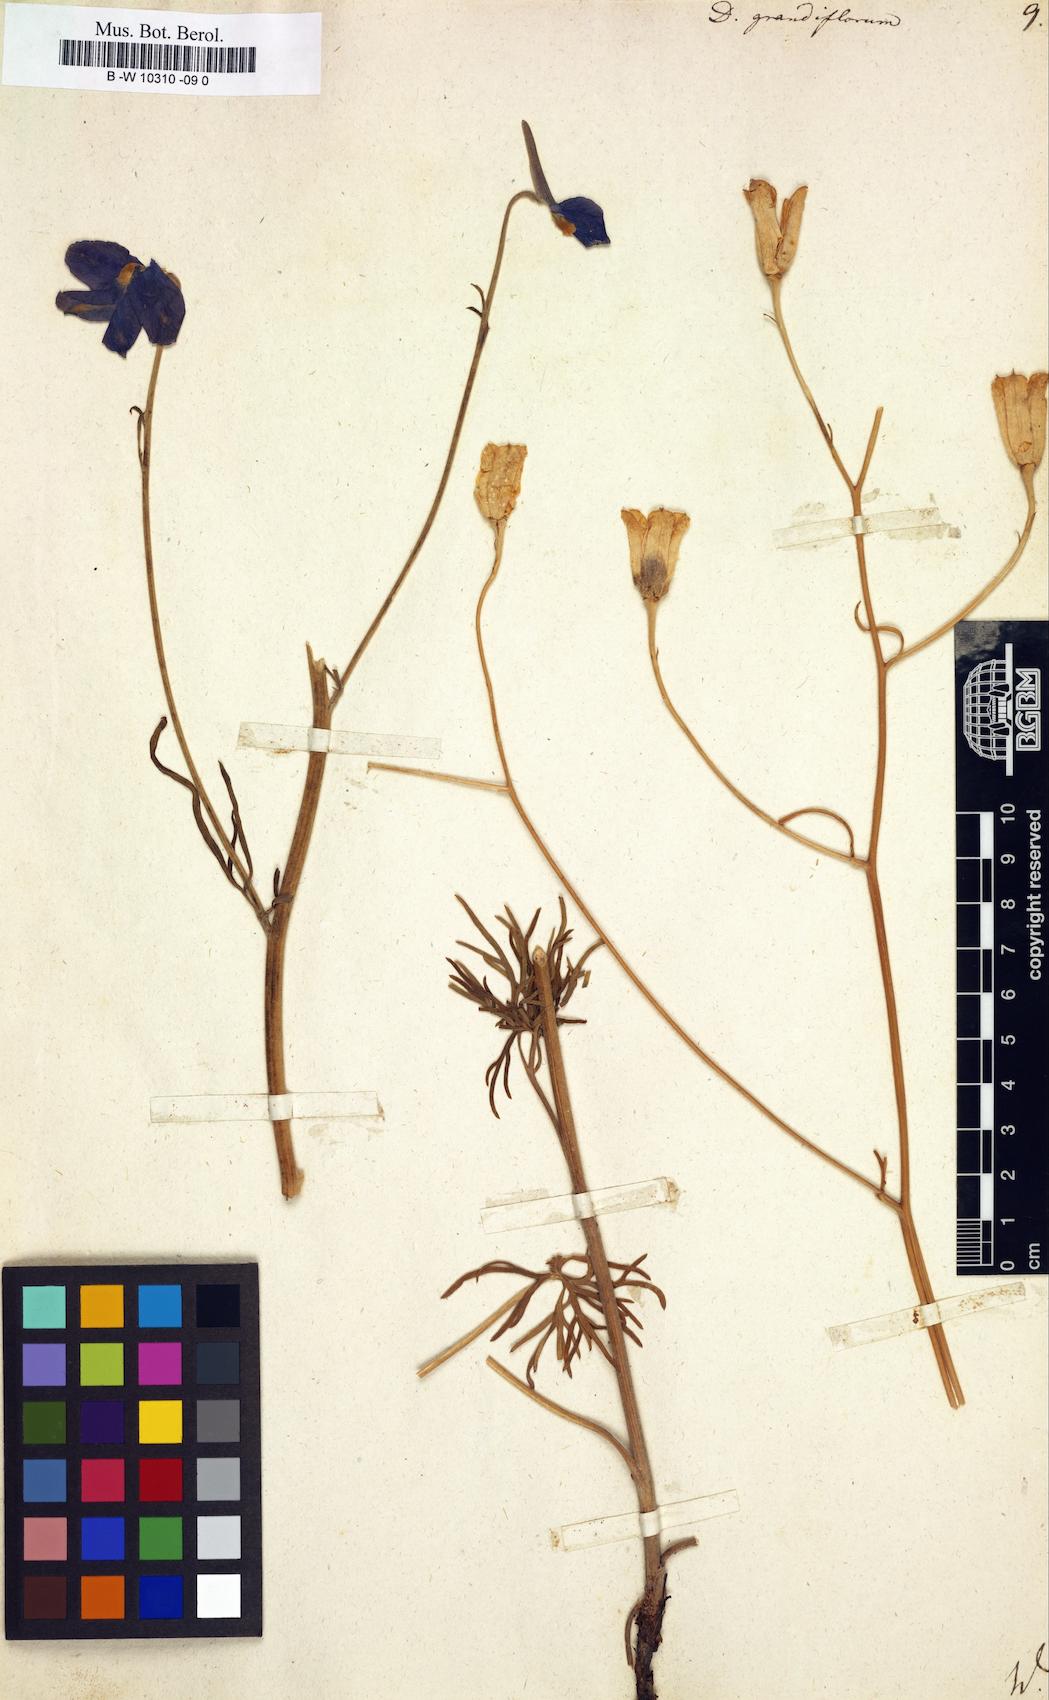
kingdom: Plantae
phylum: Tracheophyta
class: Magnoliopsida
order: Ranunculales
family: Ranunculaceae
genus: Delphinium
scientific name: Delphinium grandiflorum
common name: Siberian larkspur
